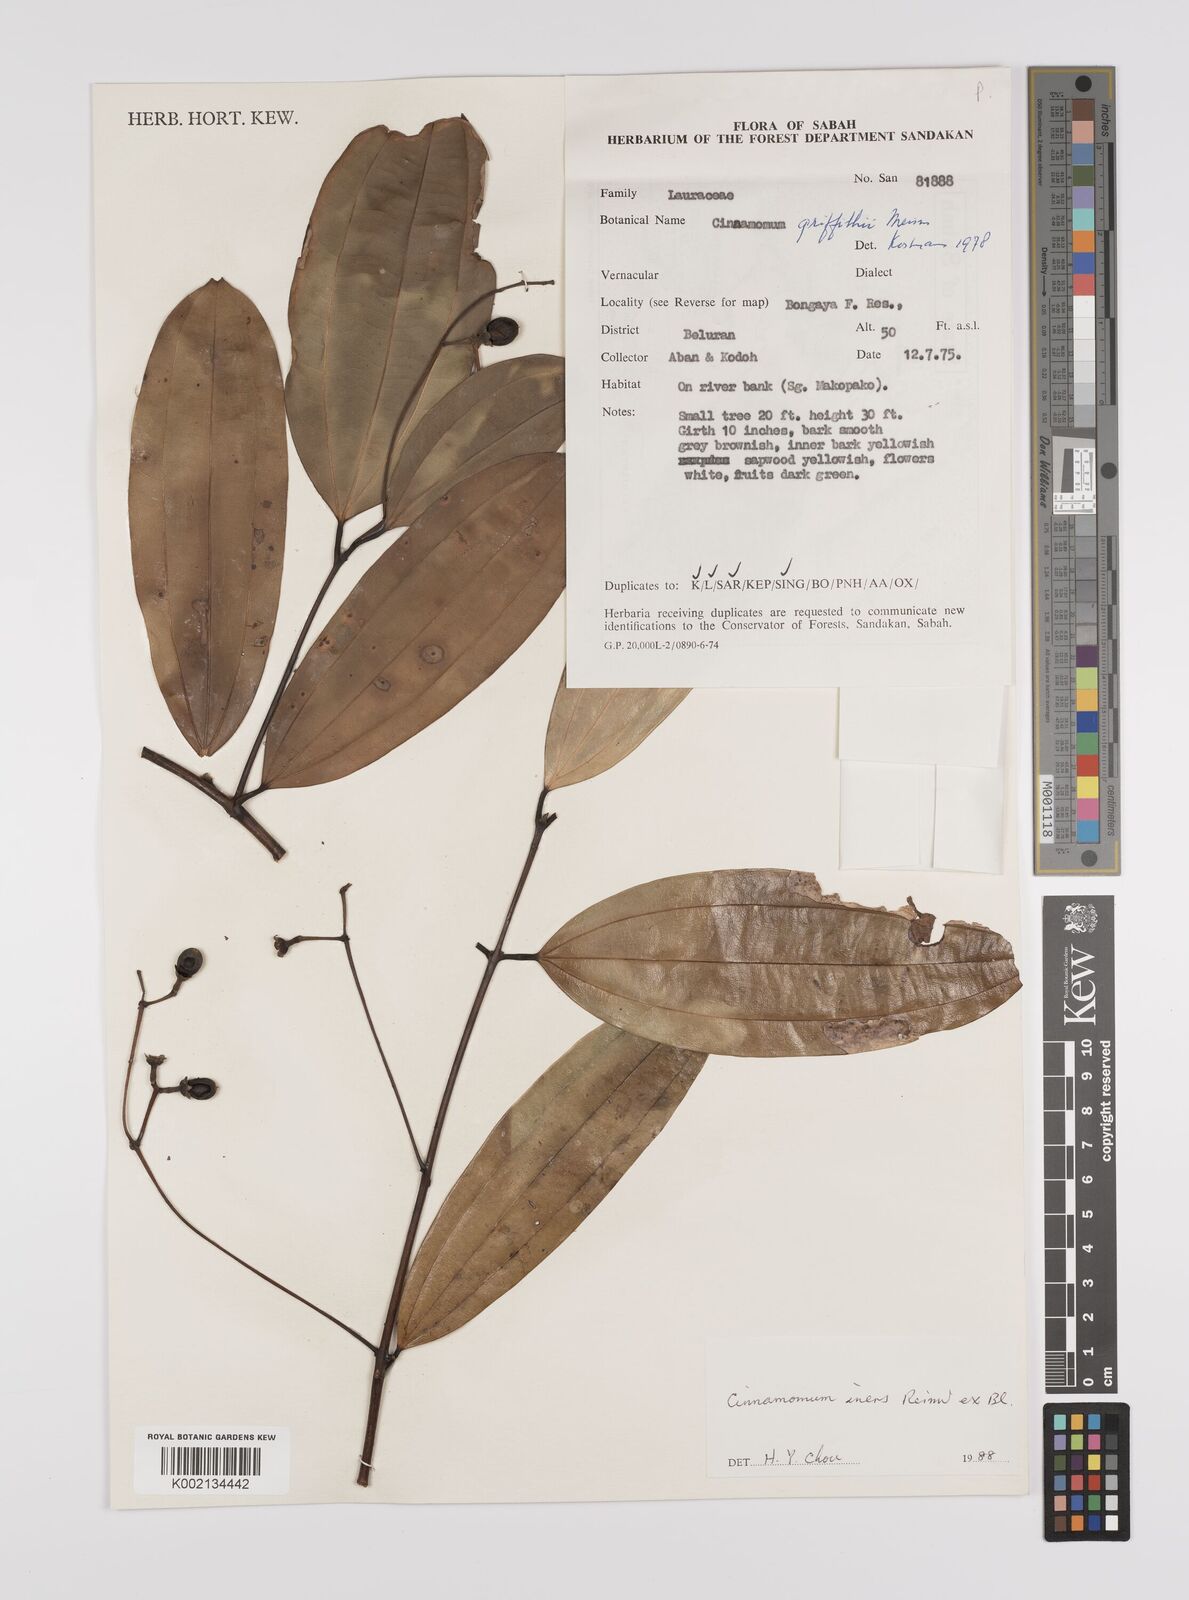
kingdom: Plantae
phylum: Tracheophyta
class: Magnoliopsida
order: Laurales
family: Lauraceae
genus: Cinnamomum
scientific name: Cinnamomum iners
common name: Wild cinnamon
